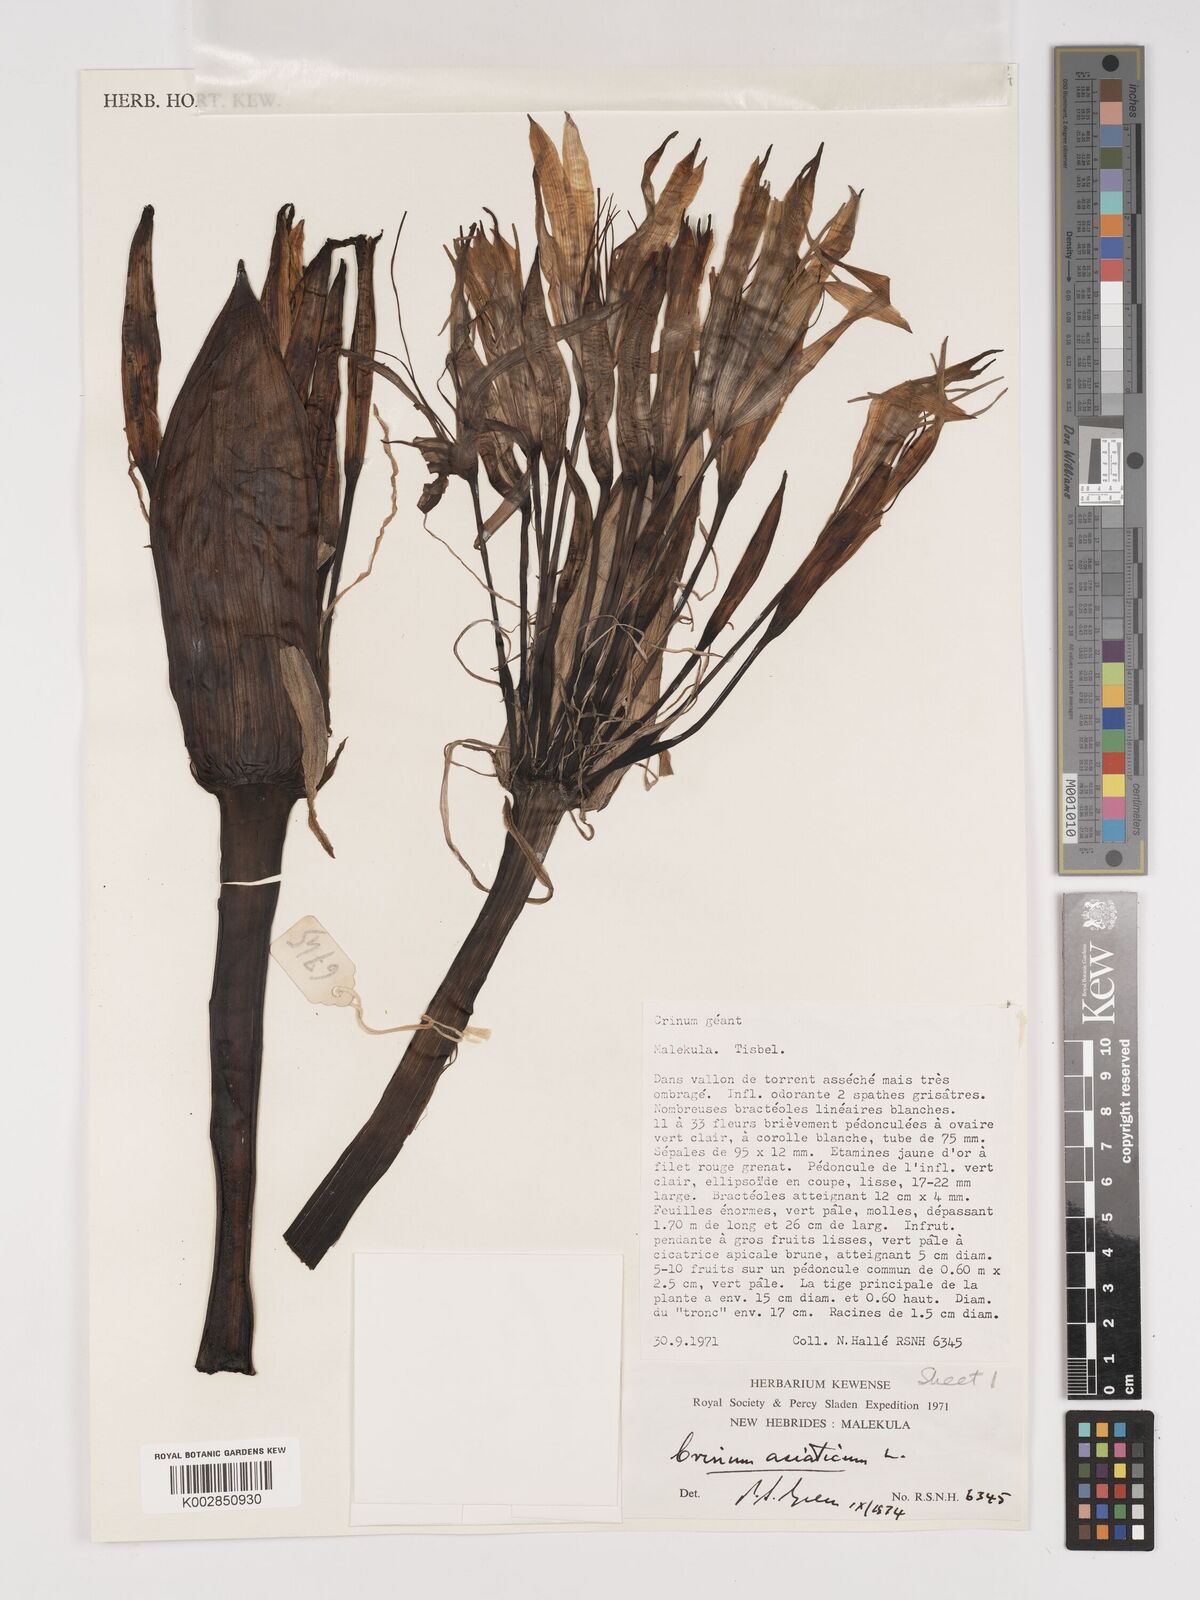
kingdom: Plantae
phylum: Tracheophyta
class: Liliopsida
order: Asparagales
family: Amaryllidaceae
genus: Crinum
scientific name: Crinum asiaticum
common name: Poisonbulb
